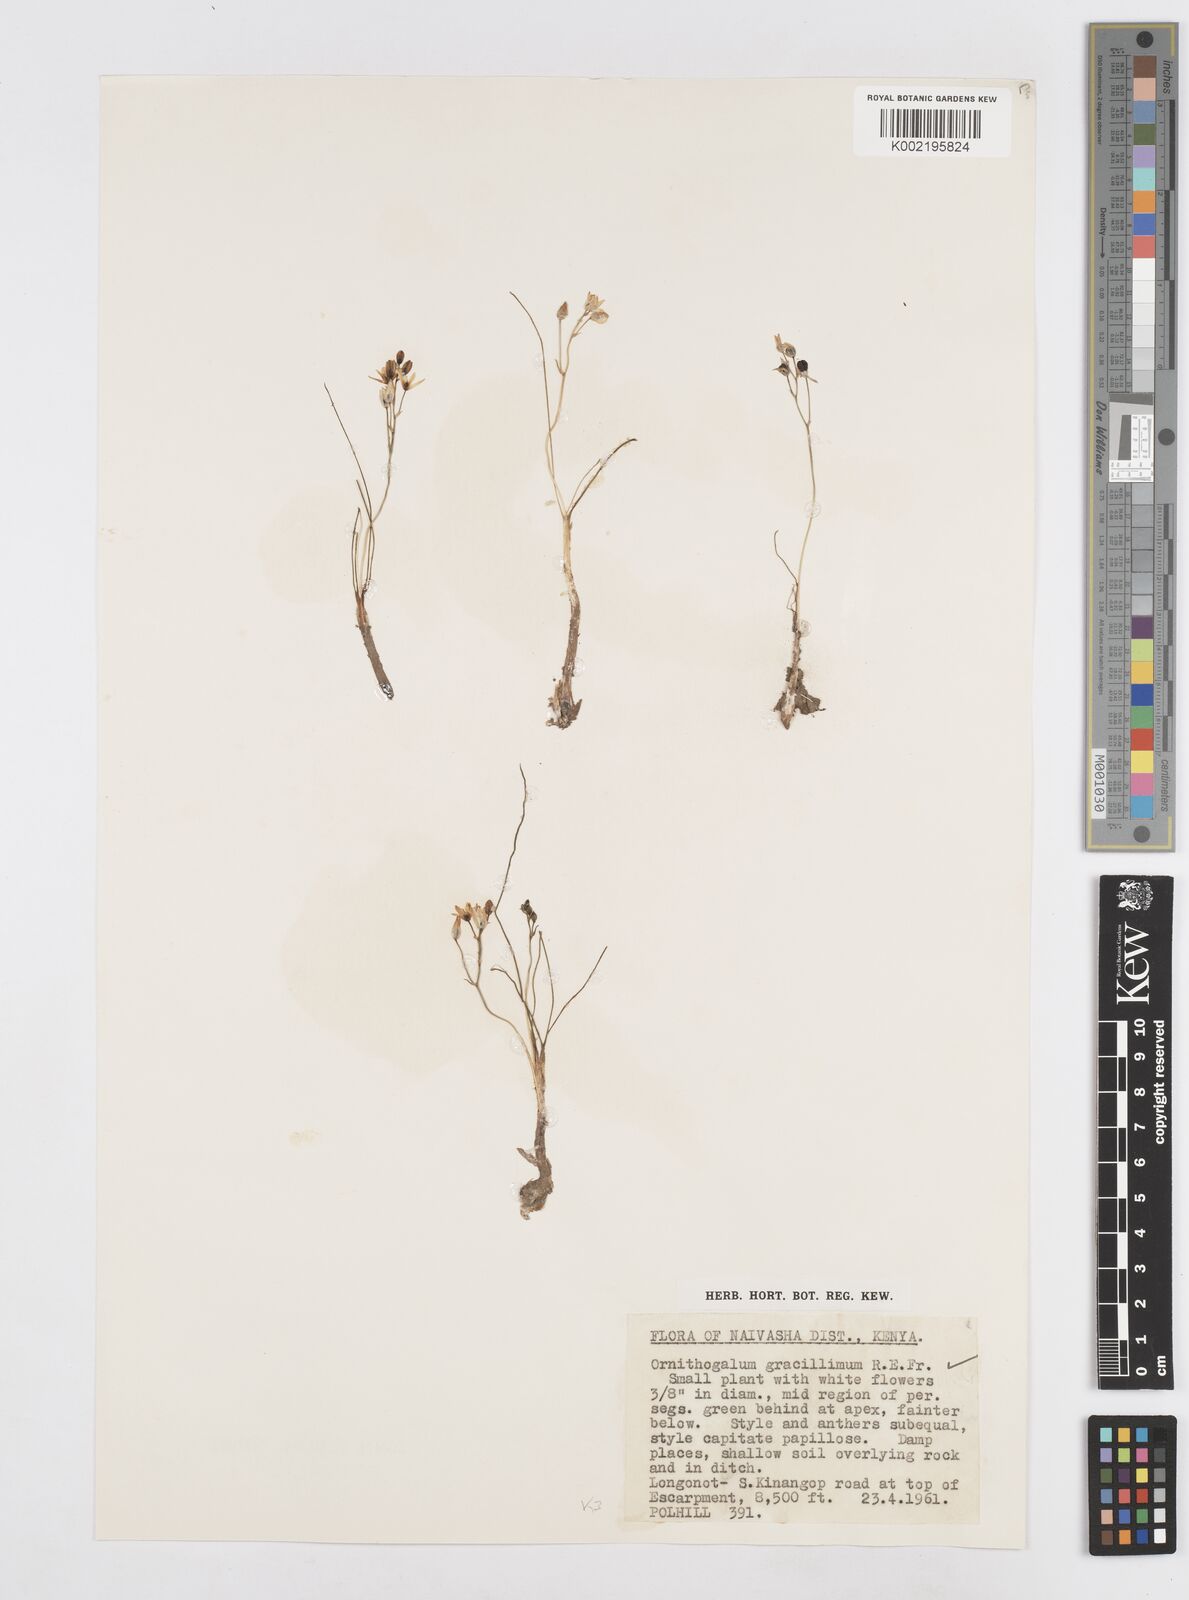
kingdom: Plantae
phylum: Tracheophyta
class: Liliopsida
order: Asparagales
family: Asparagaceae
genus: Ornithogalum
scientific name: Ornithogalum gracillimum
